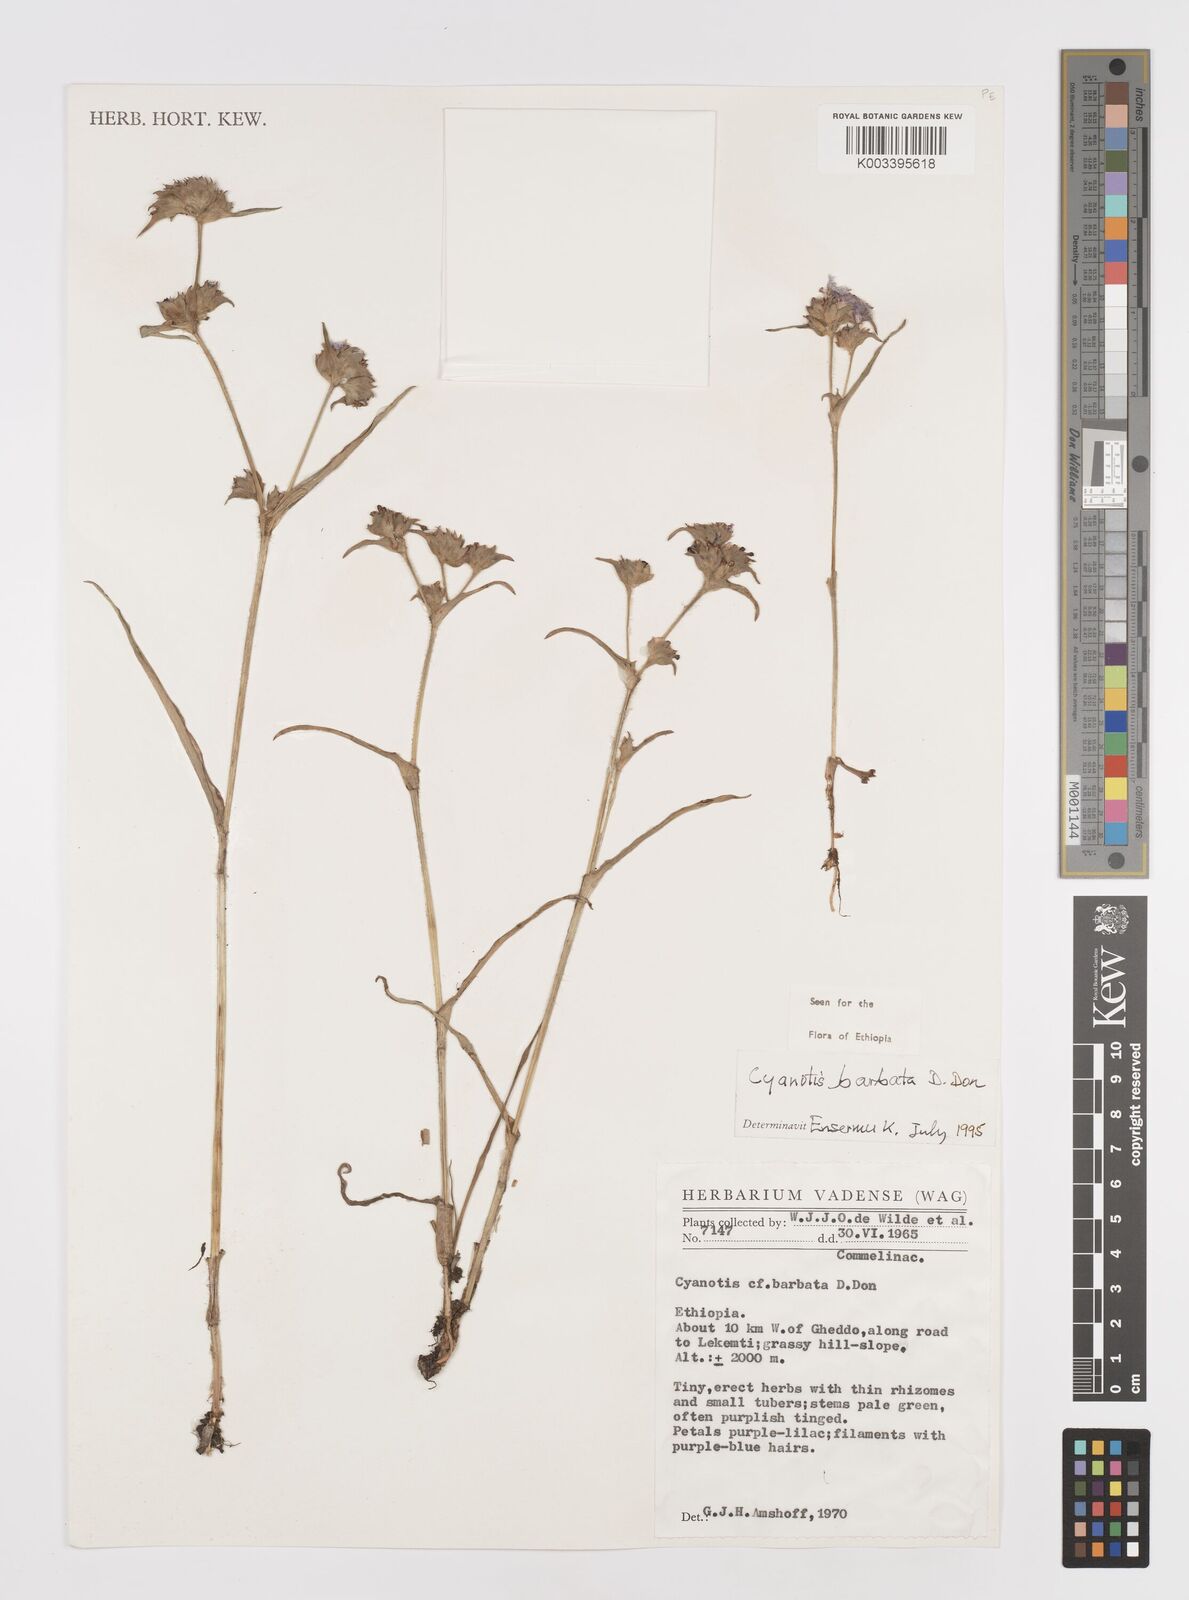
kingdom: Plantae
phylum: Tracheophyta
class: Liliopsida
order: Commelinales
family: Commelinaceae
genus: Cyanotis
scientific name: Cyanotis vaga
